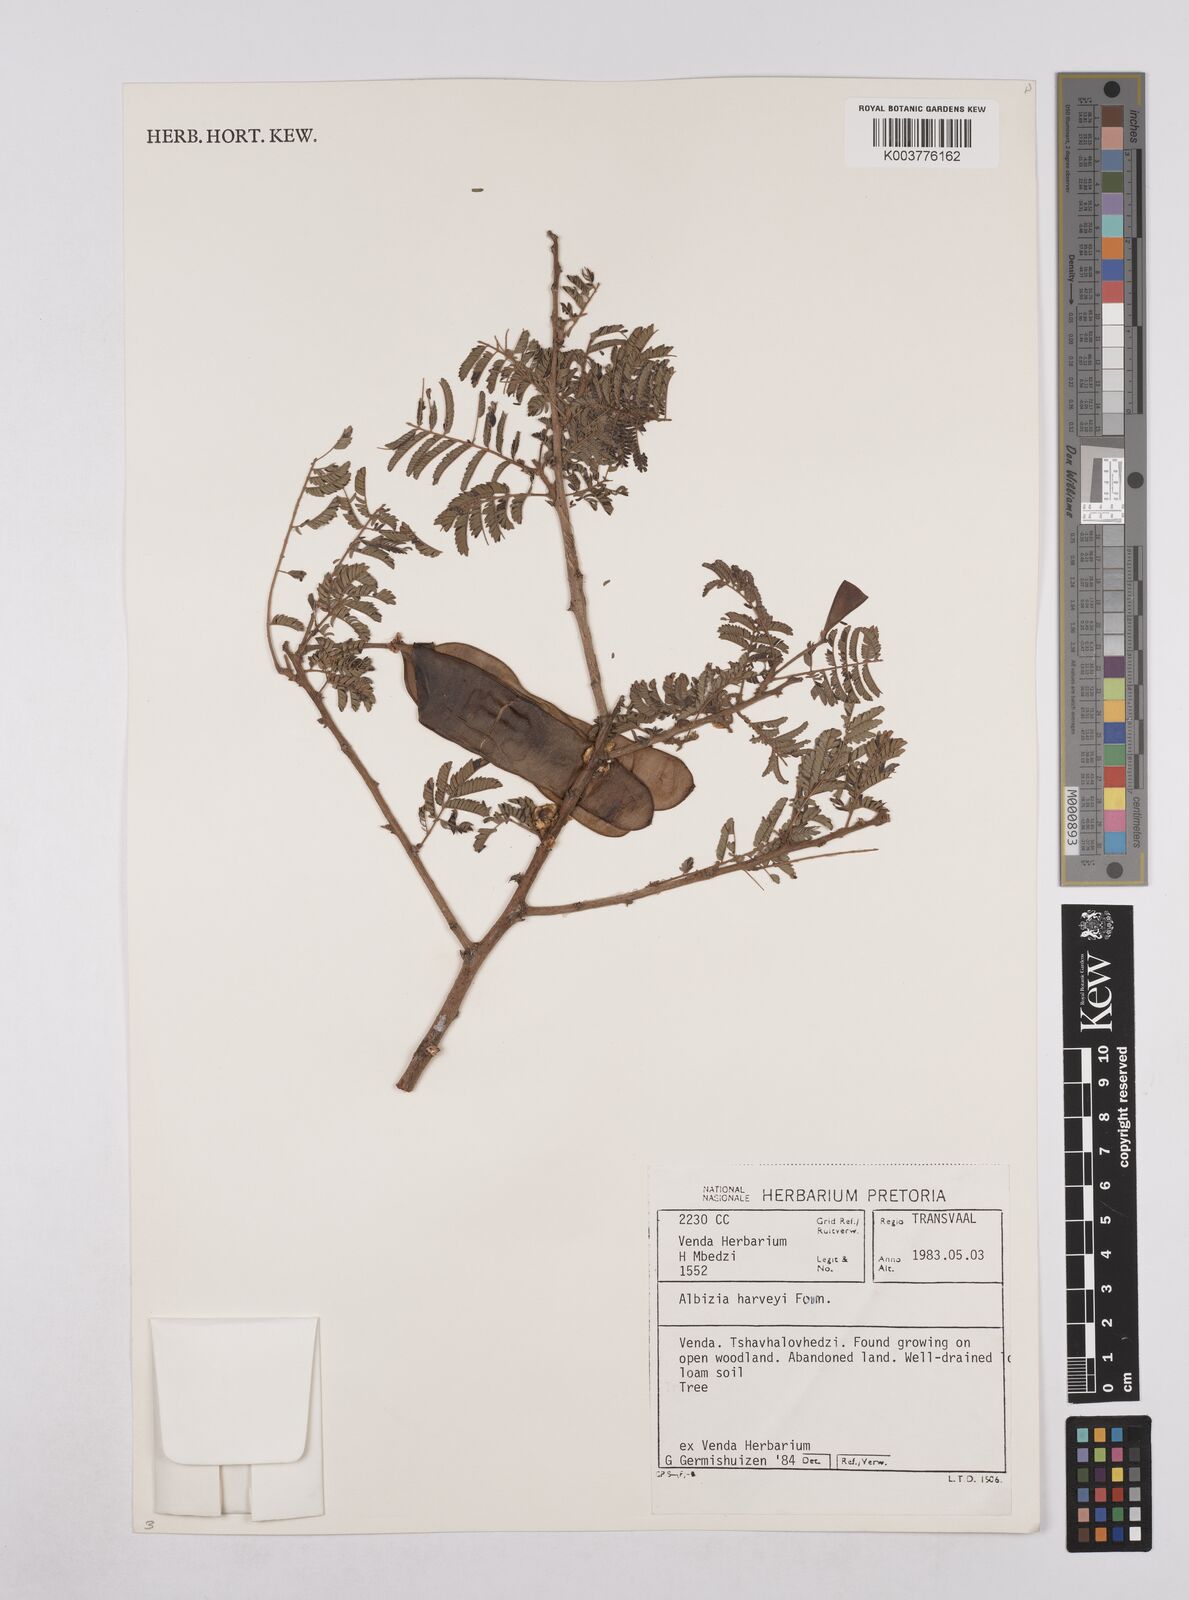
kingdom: Plantae
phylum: Tracheophyta
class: Magnoliopsida
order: Fabales
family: Fabaceae
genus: Albizia
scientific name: Albizia harveyi
